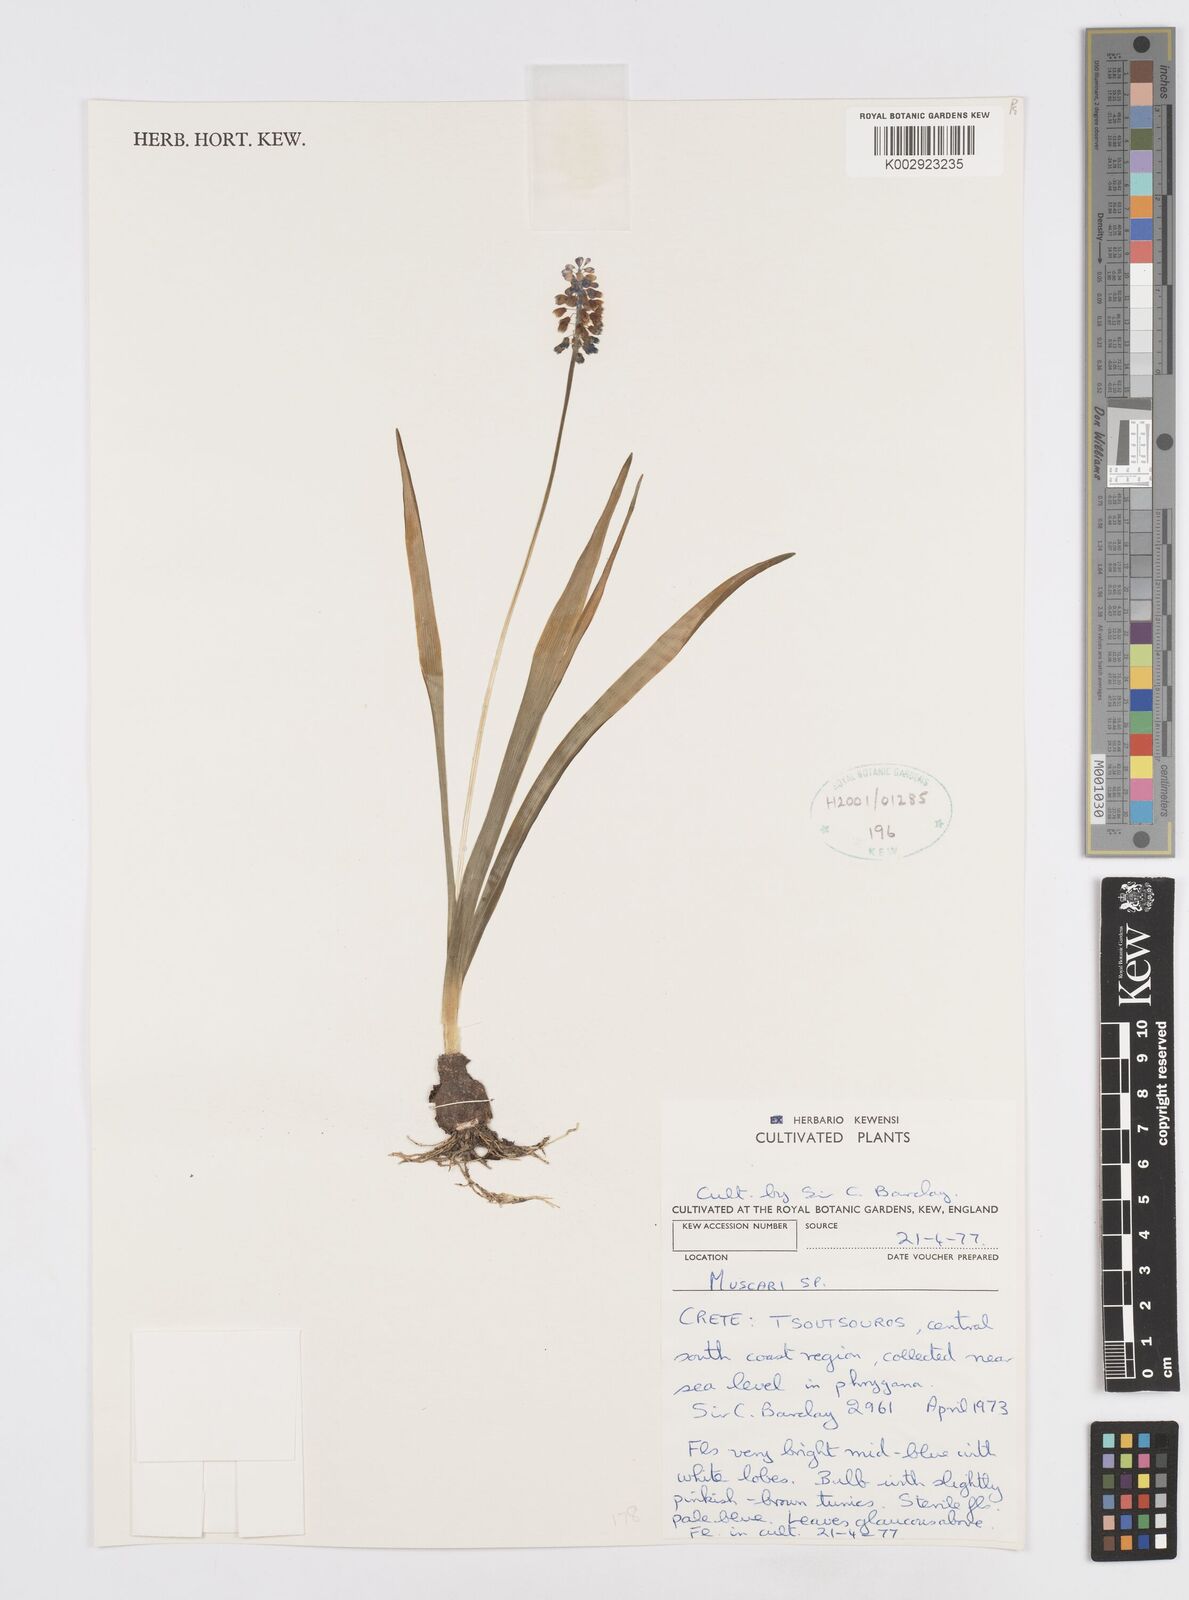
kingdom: Plantae
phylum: Tracheophyta
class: Liliopsida
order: Asparagales
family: Asparagaceae
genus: Muscari
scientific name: Muscari
